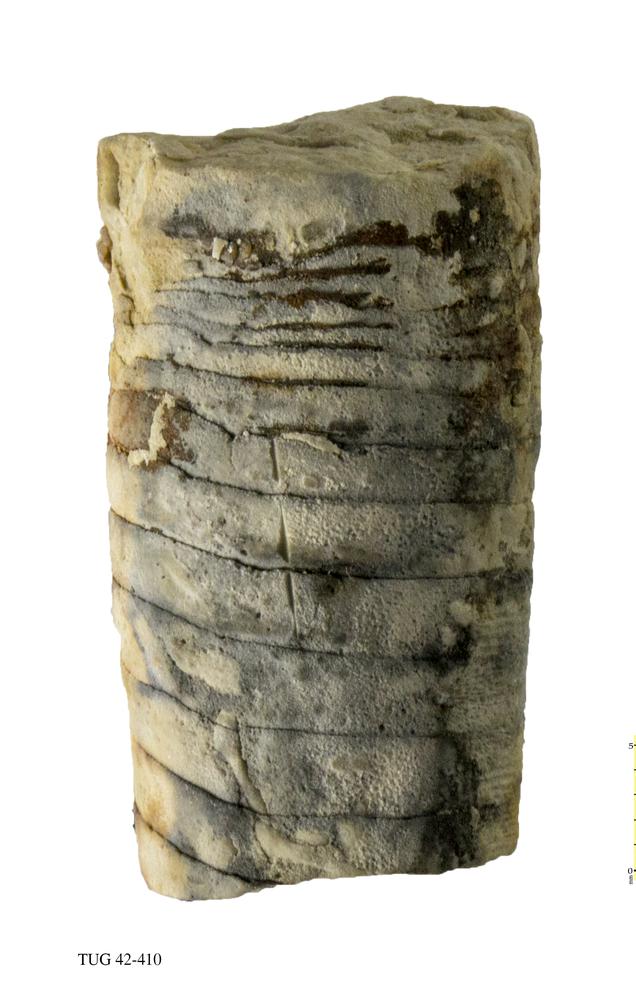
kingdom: Animalia
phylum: Mollusca
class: Cephalopoda
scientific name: Cephalopoda
